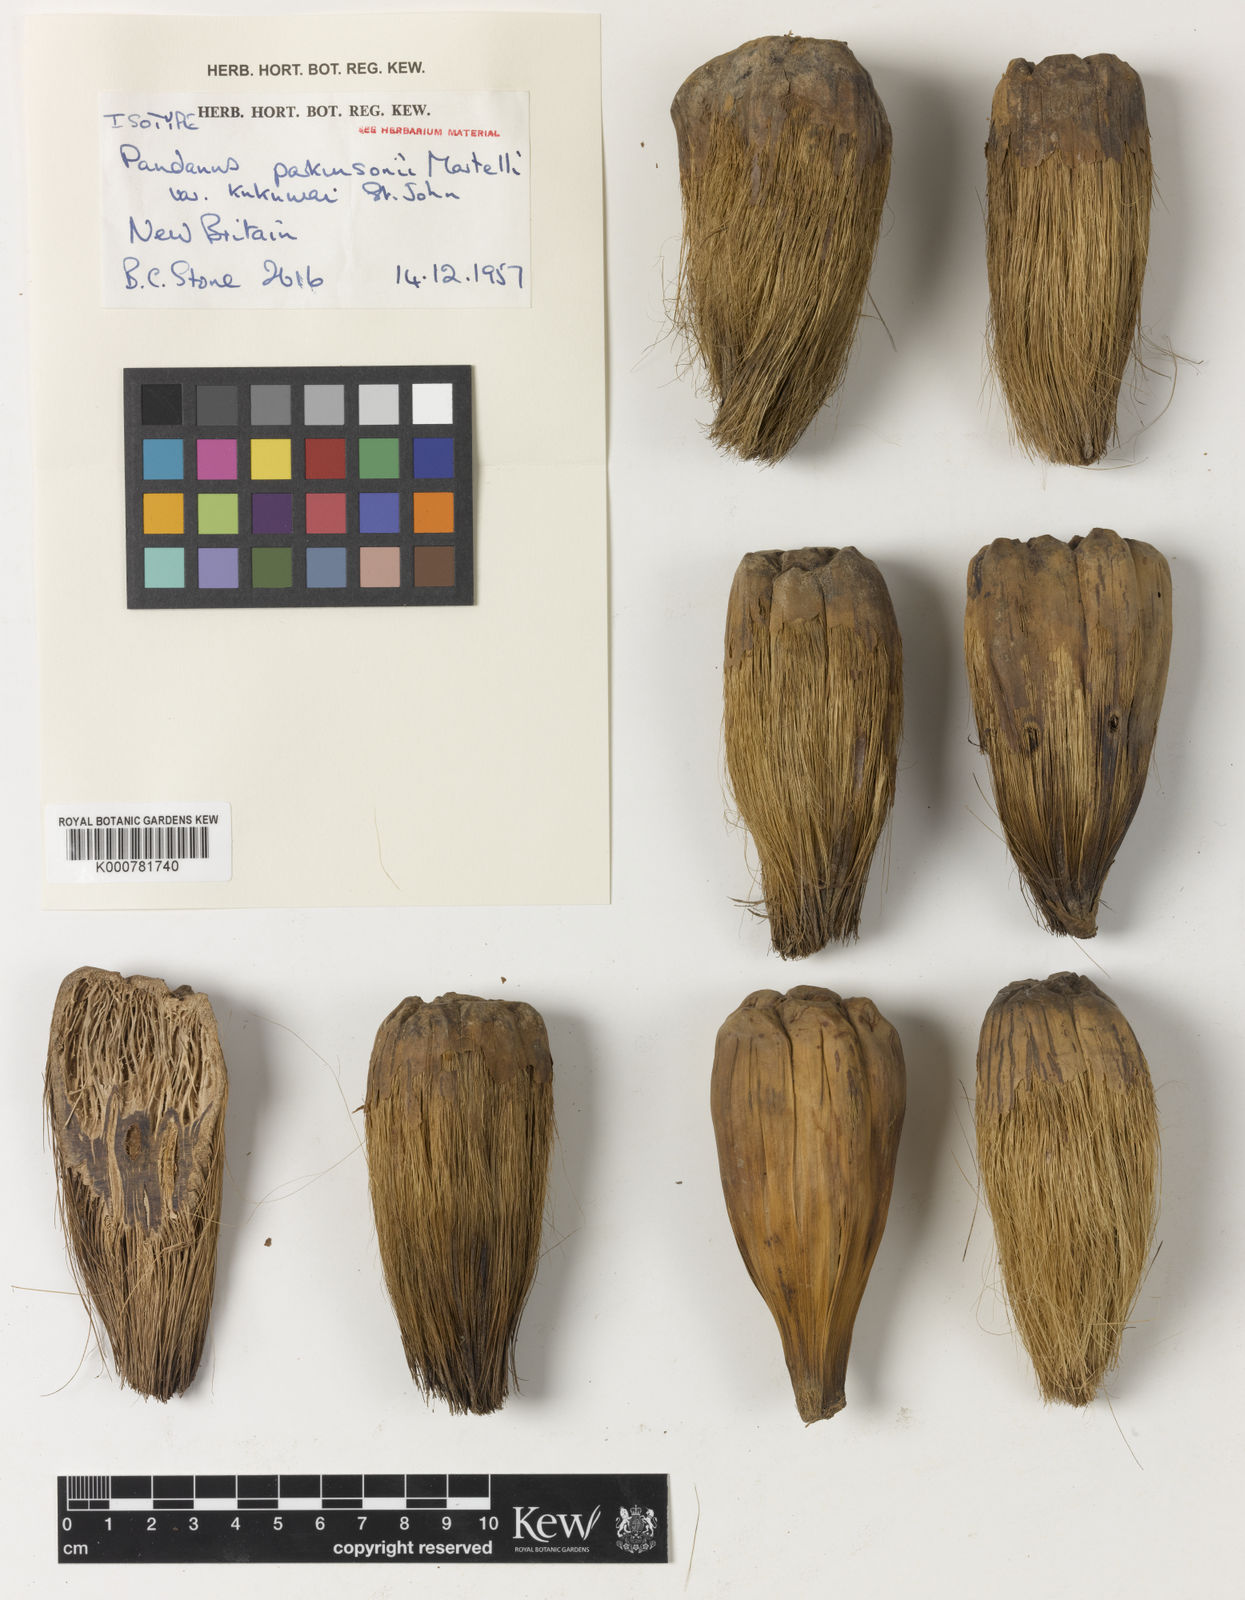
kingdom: Plantae
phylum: Tracheophyta
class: Liliopsida
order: Pandanales
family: Pandanaceae
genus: Pandanus
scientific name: Pandanus papuanus
